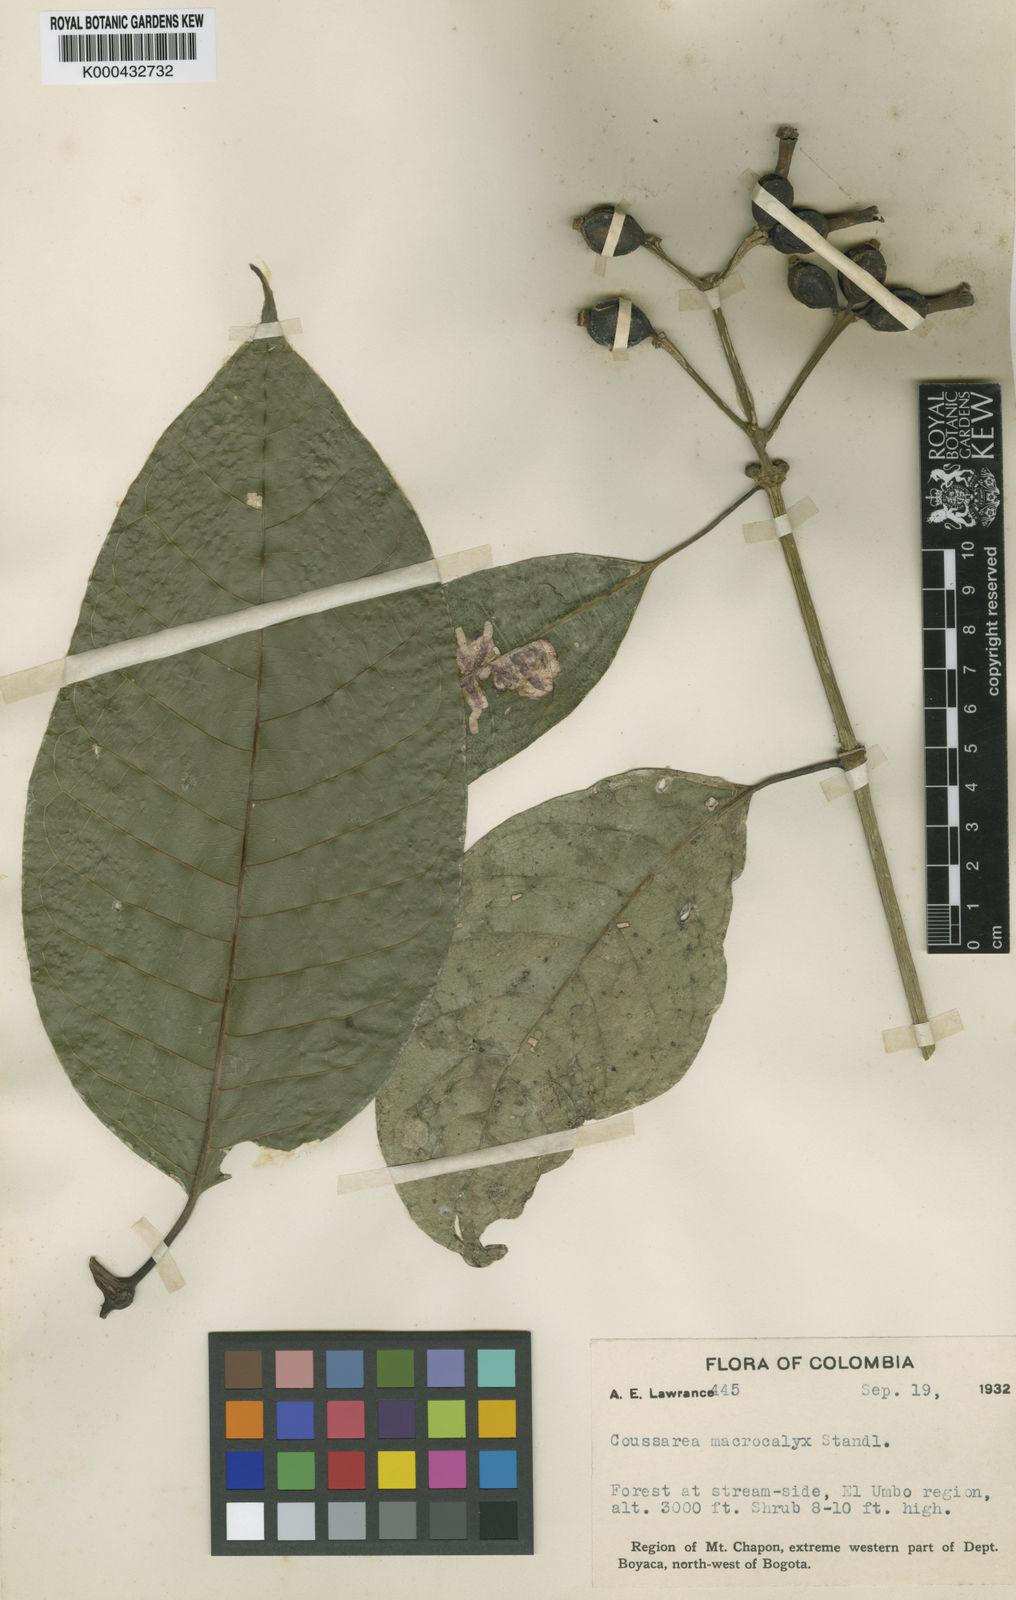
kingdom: Plantae
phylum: Tracheophyta
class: Magnoliopsida
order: Gentianales
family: Rubiaceae
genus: Coussarea
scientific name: Coussarea macrocalyx
